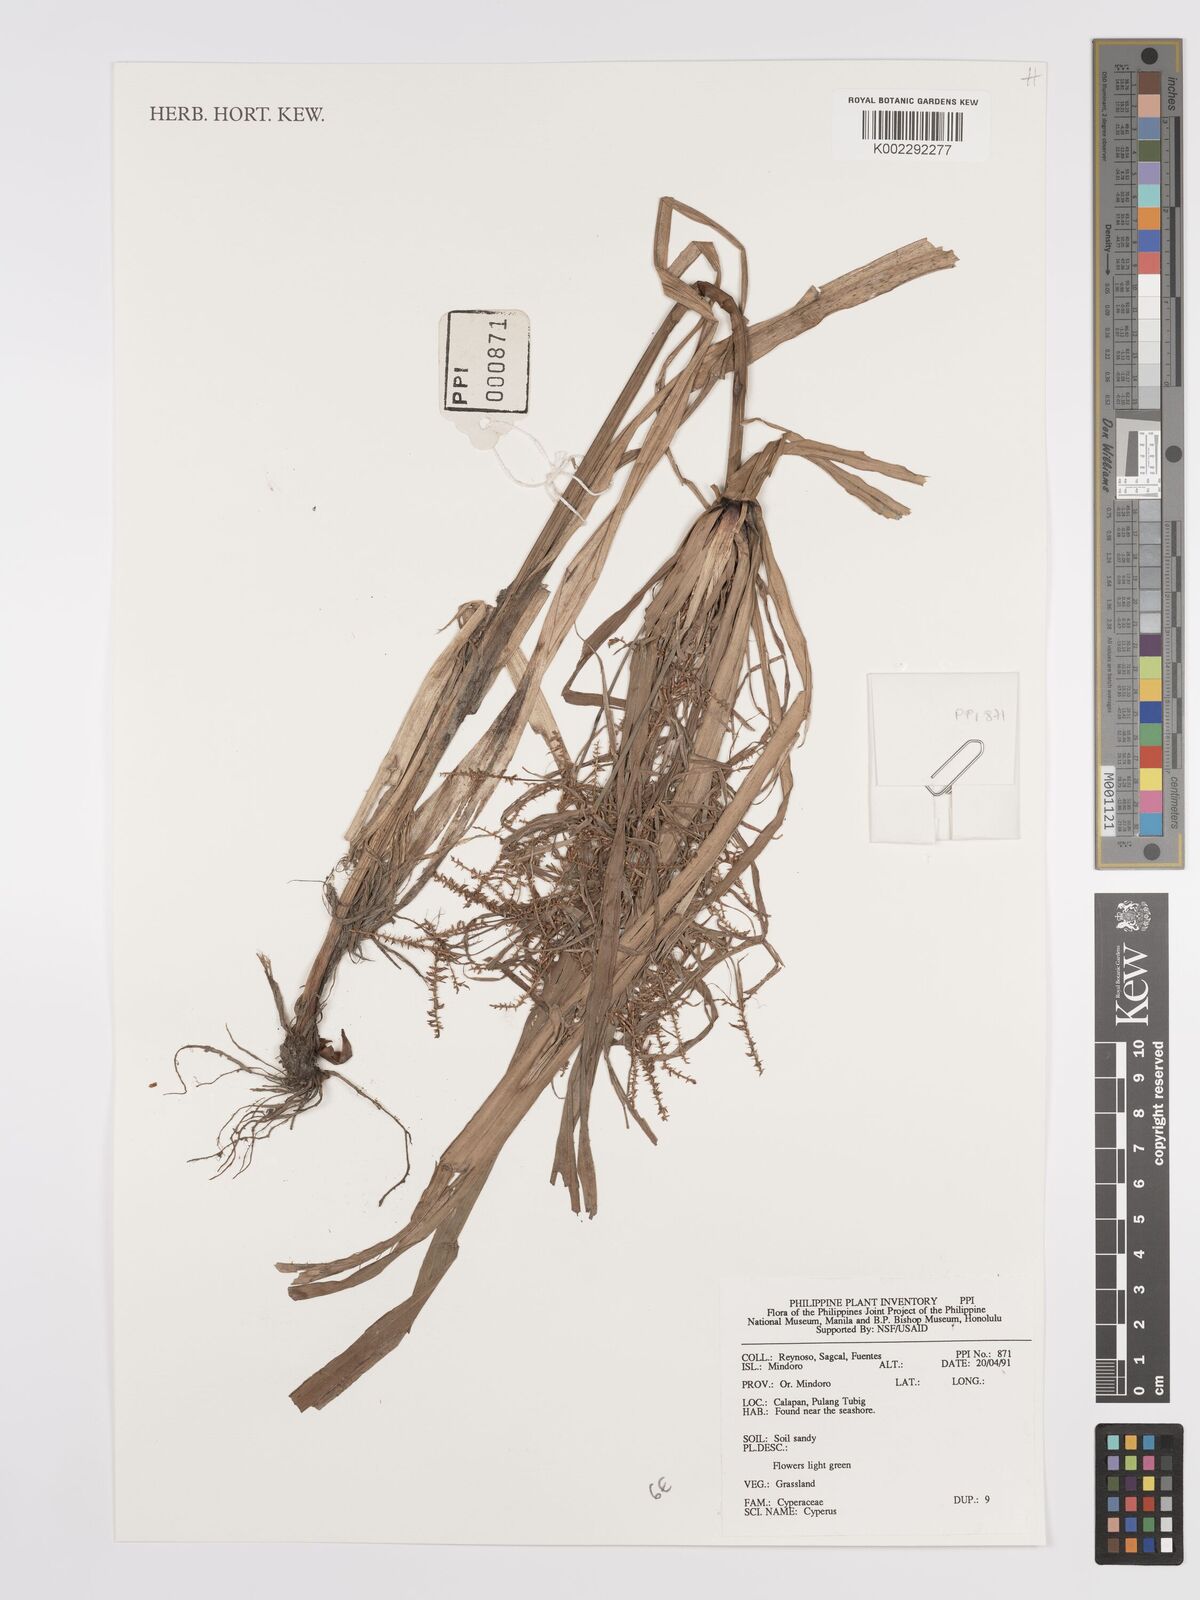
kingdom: Plantae
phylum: Tracheophyta
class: Liliopsida
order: Poales
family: Cyperaceae
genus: Cyperus
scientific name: Cyperus
